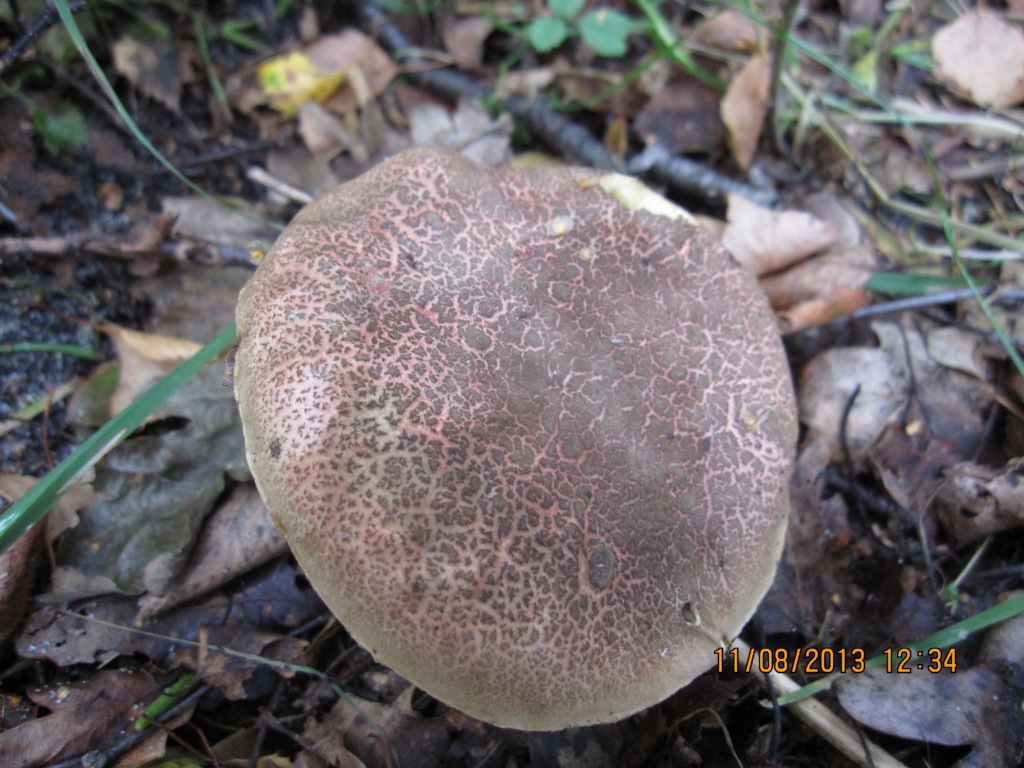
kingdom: Fungi
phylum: Basidiomycota
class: Agaricomycetes
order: Boletales
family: Boletaceae
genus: Xerocomellus
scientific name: Xerocomellus cisalpinus
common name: finsprukken rørhat
